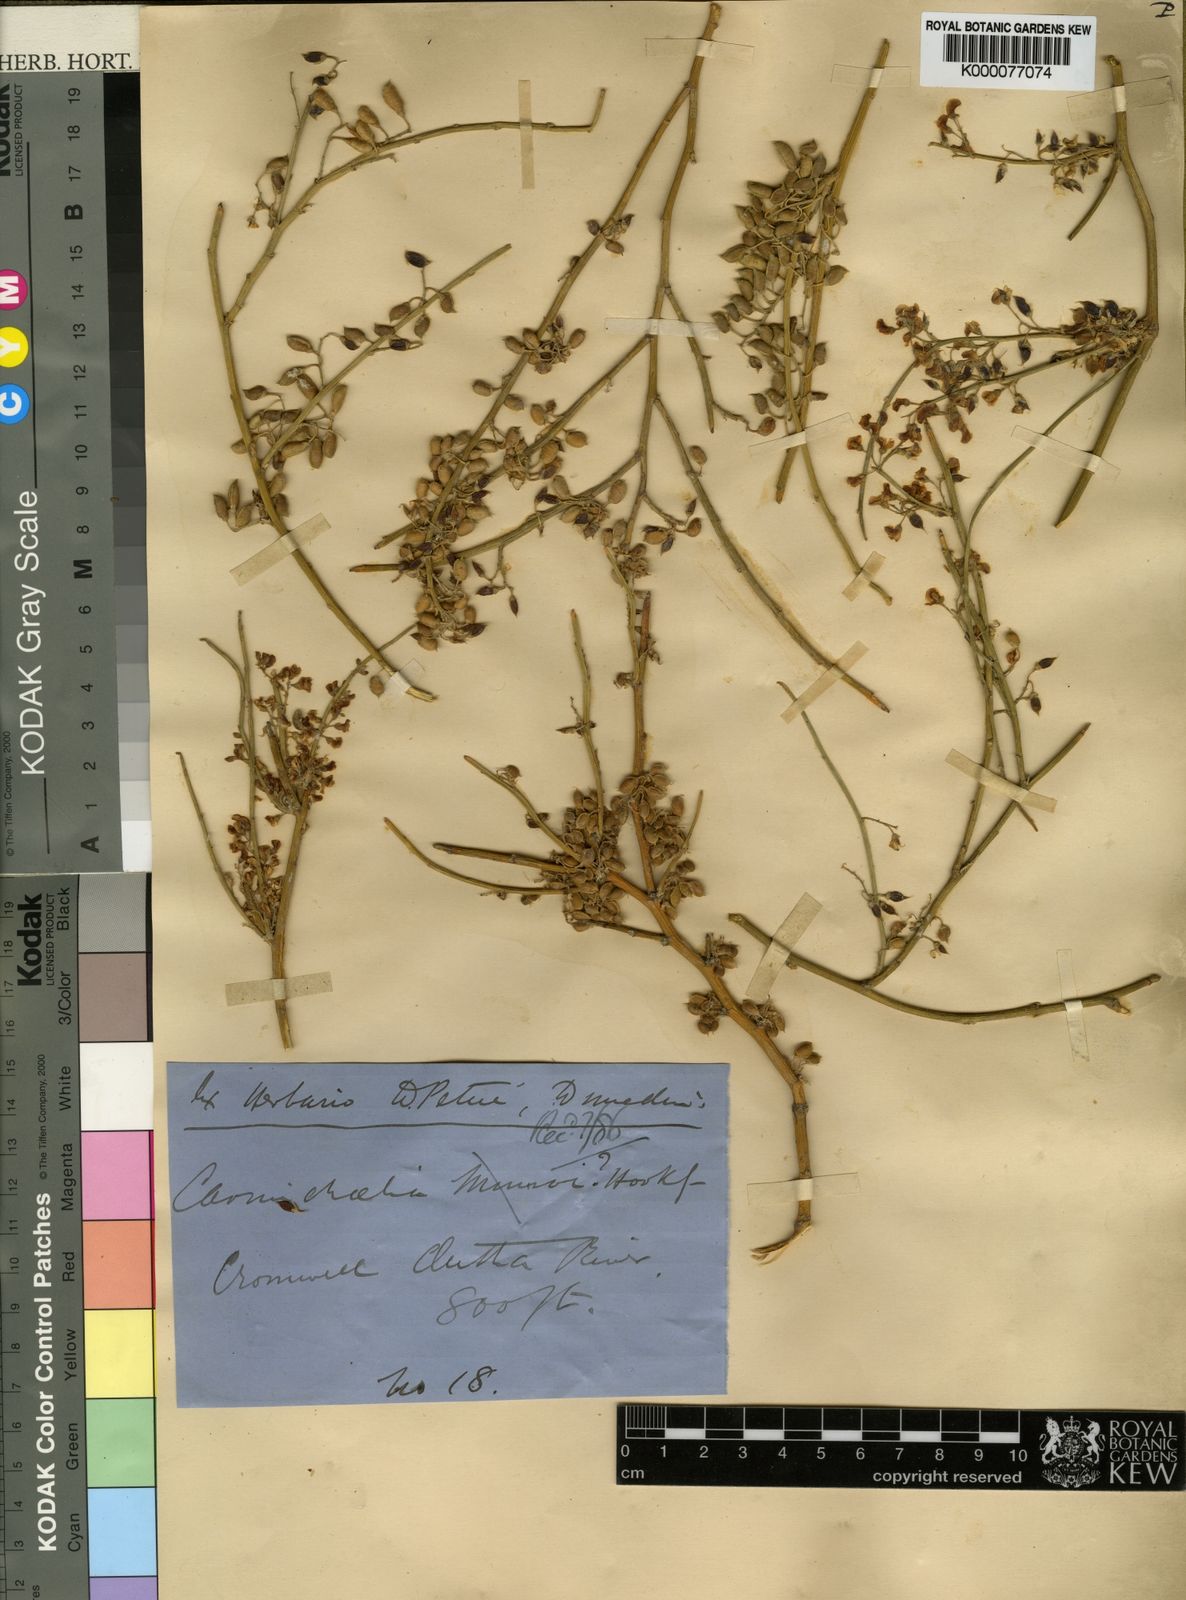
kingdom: Plantae
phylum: Tracheophyta
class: Magnoliopsida
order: Fabales
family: Fabaceae
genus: Carmichaelia
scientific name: Carmichaelia petriei
